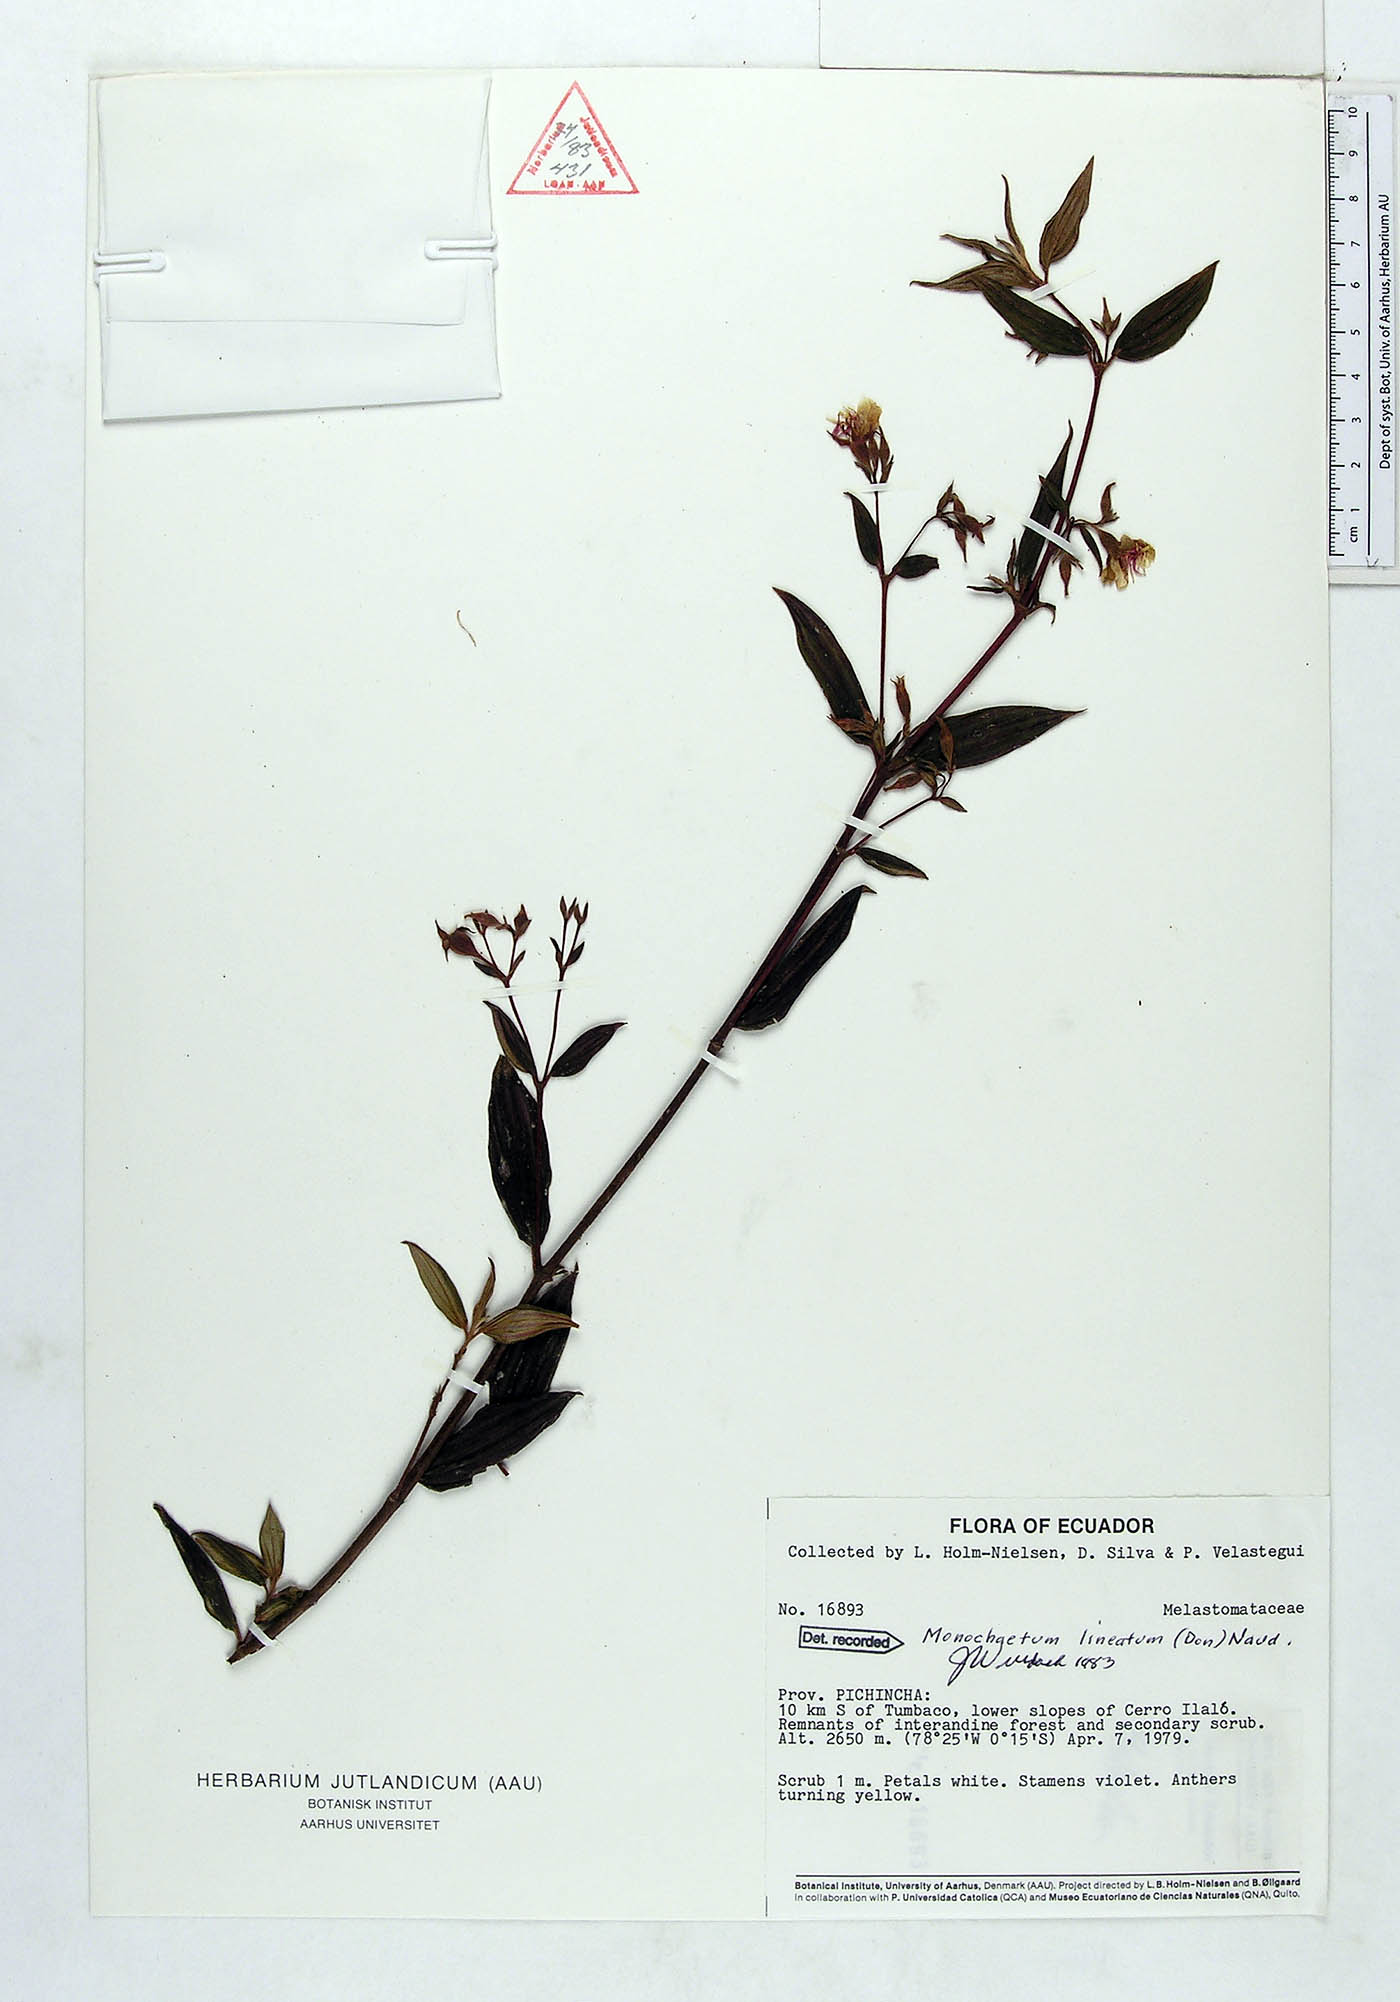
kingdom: Plantae
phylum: Tracheophyta
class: Magnoliopsida
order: Myrtales
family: Melastomataceae
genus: Monochaetum
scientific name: Monochaetum lineatum
